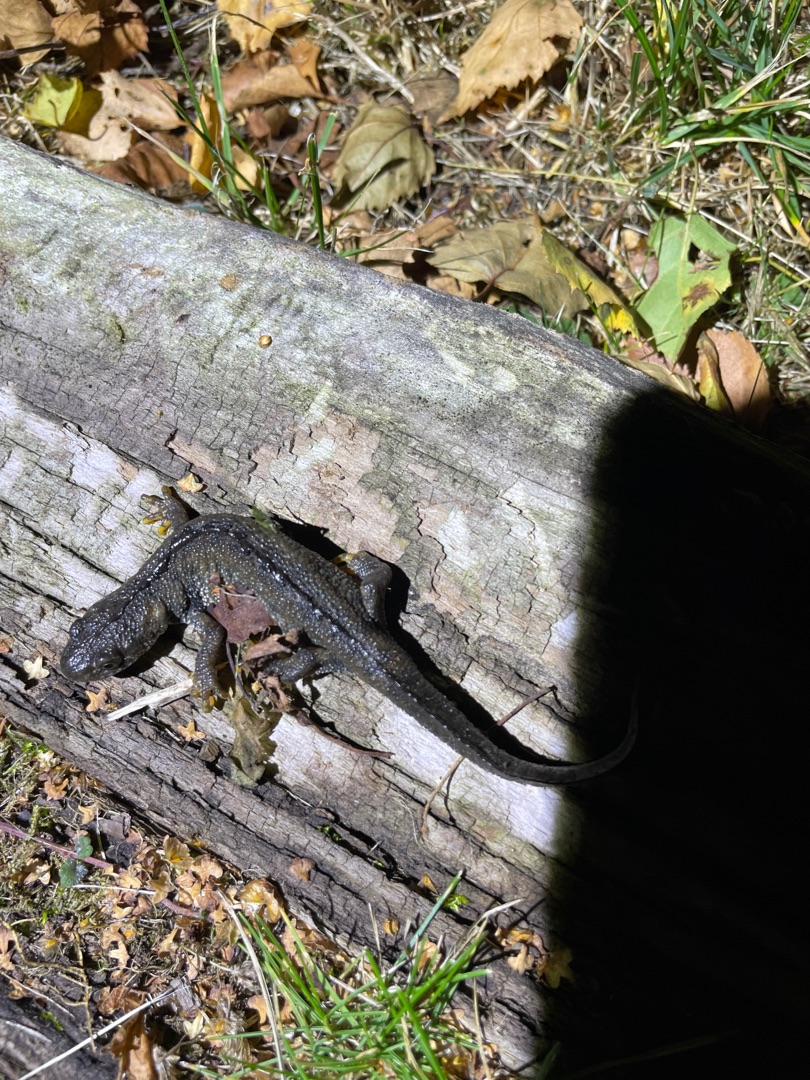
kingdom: Animalia
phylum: Chordata
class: Amphibia
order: Caudata
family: Salamandridae
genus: Triturus
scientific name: Triturus cristatus
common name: Stor vandsalamander
